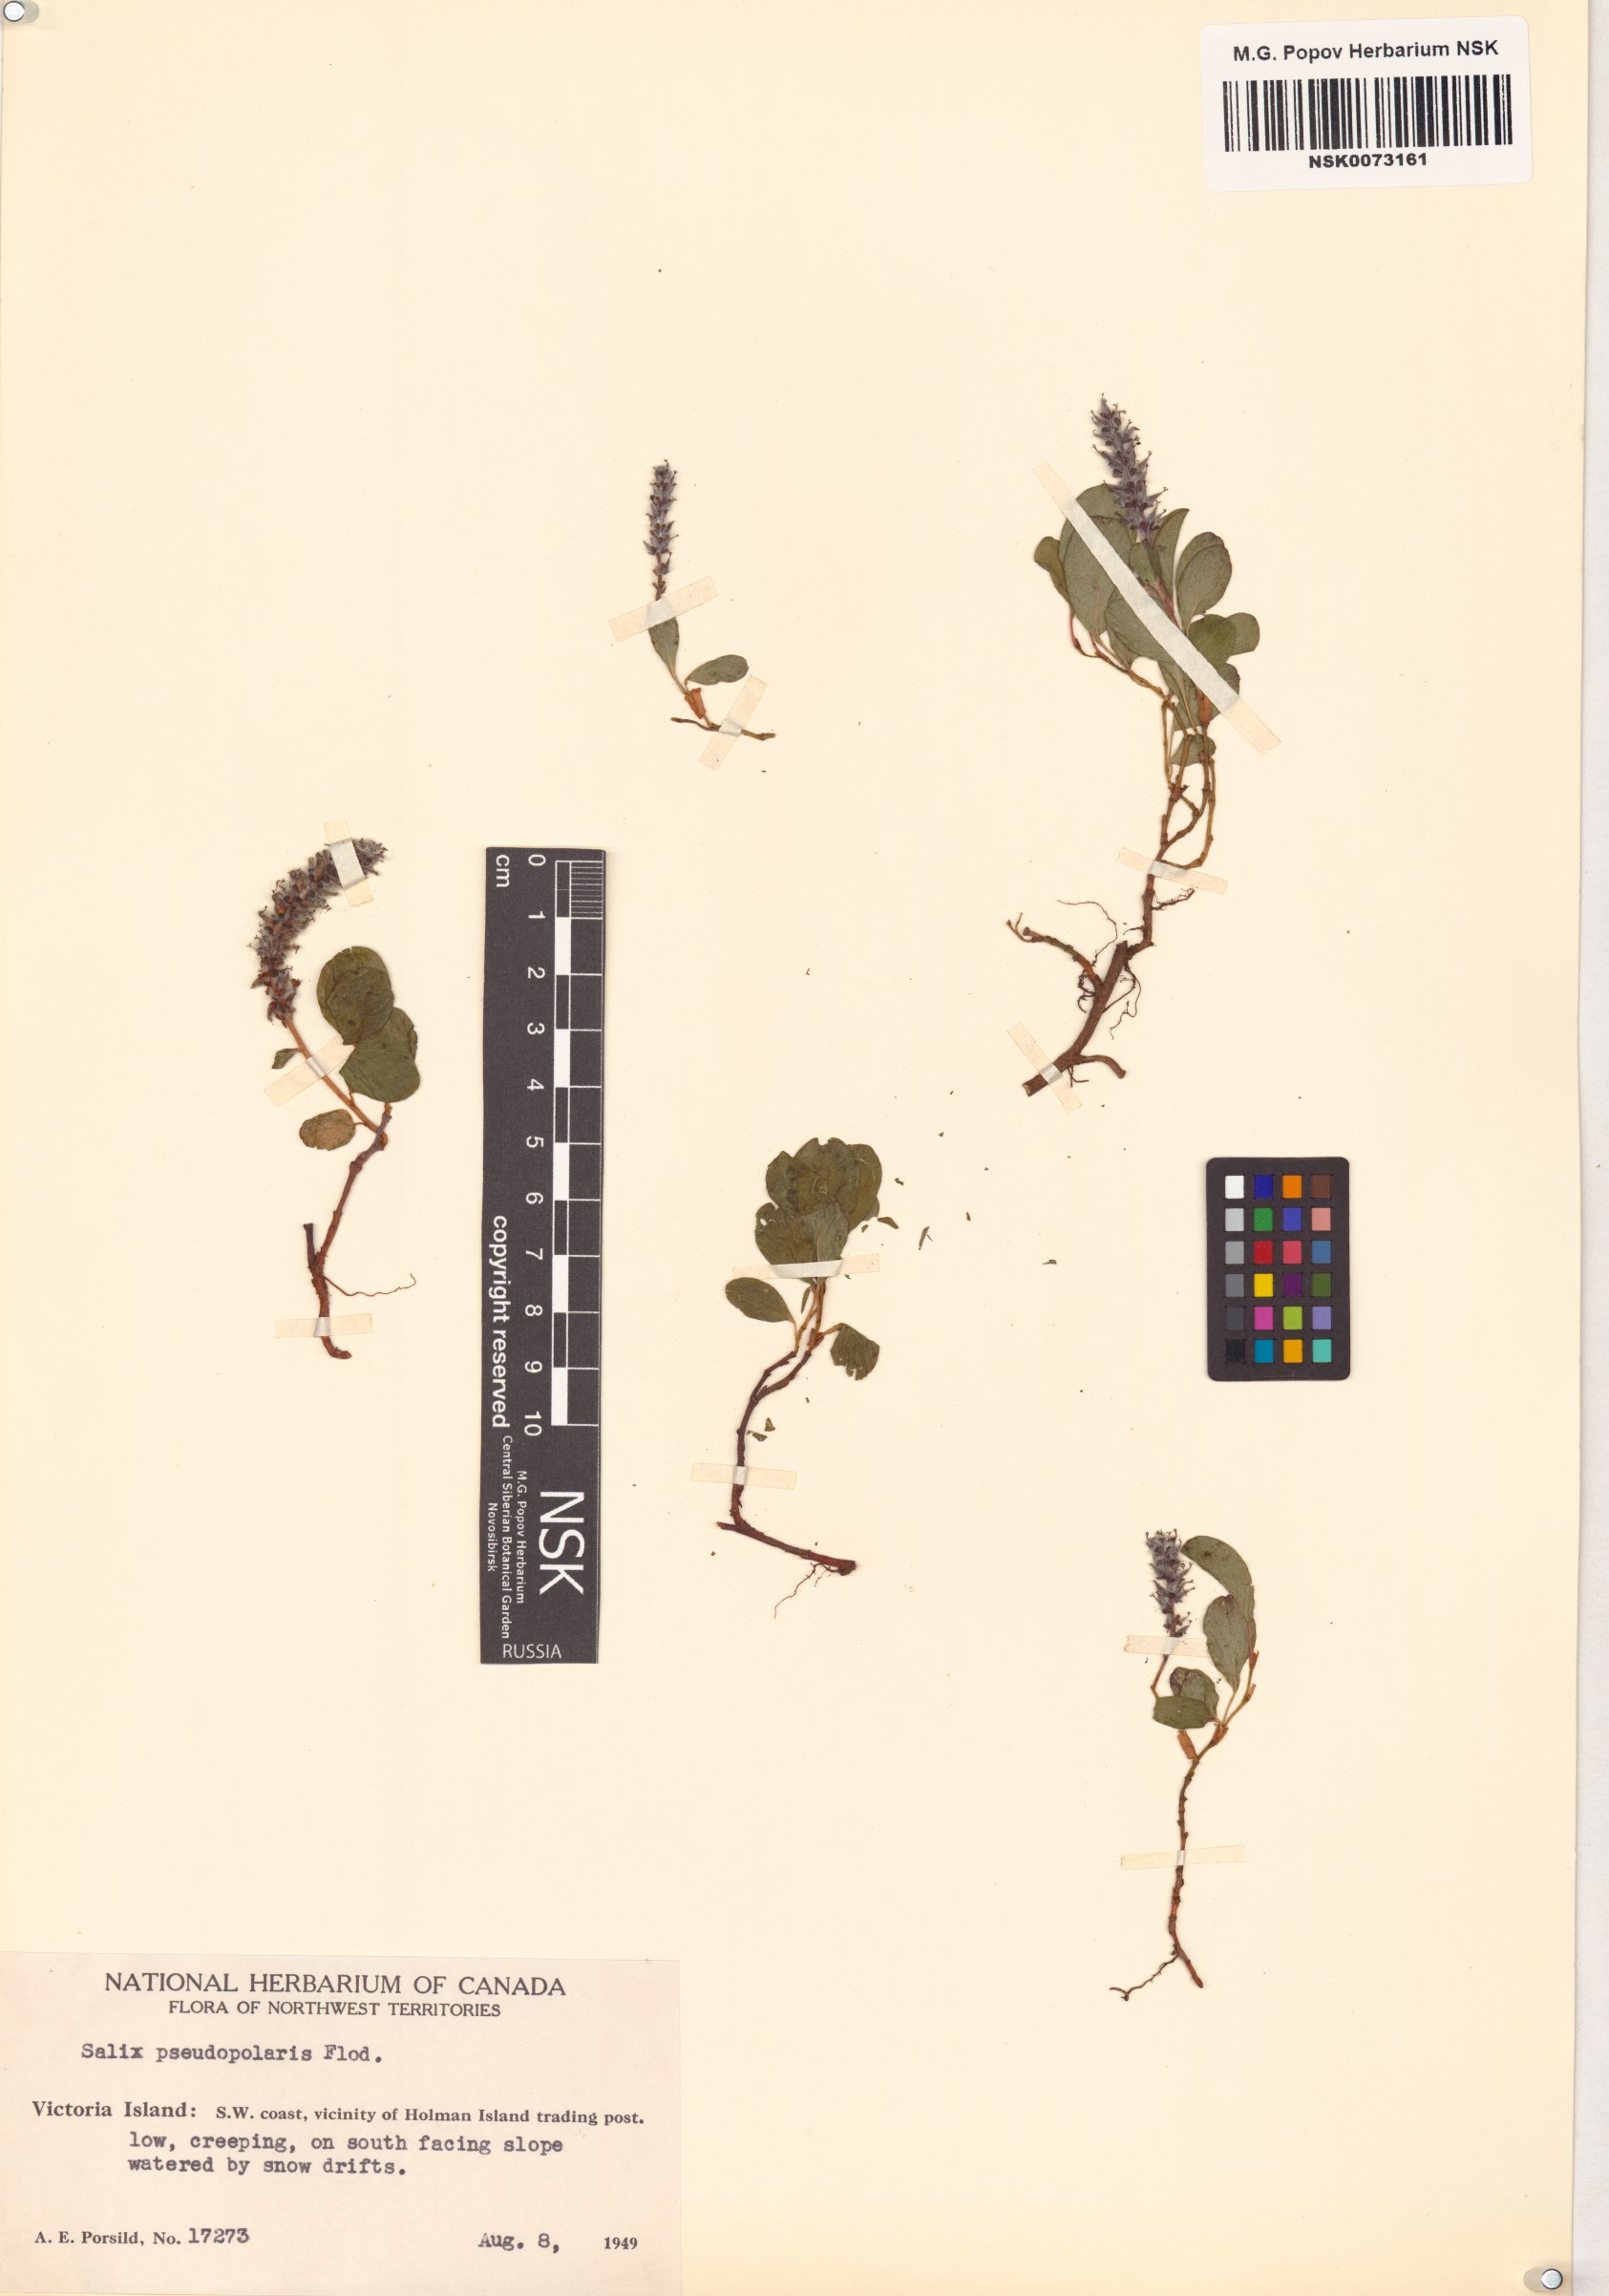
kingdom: Plantae
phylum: Tracheophyta
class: Magnoliopsida
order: Malpighiales
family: Salicaceae
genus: Salix
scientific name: Salix polaris
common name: Polar willow
